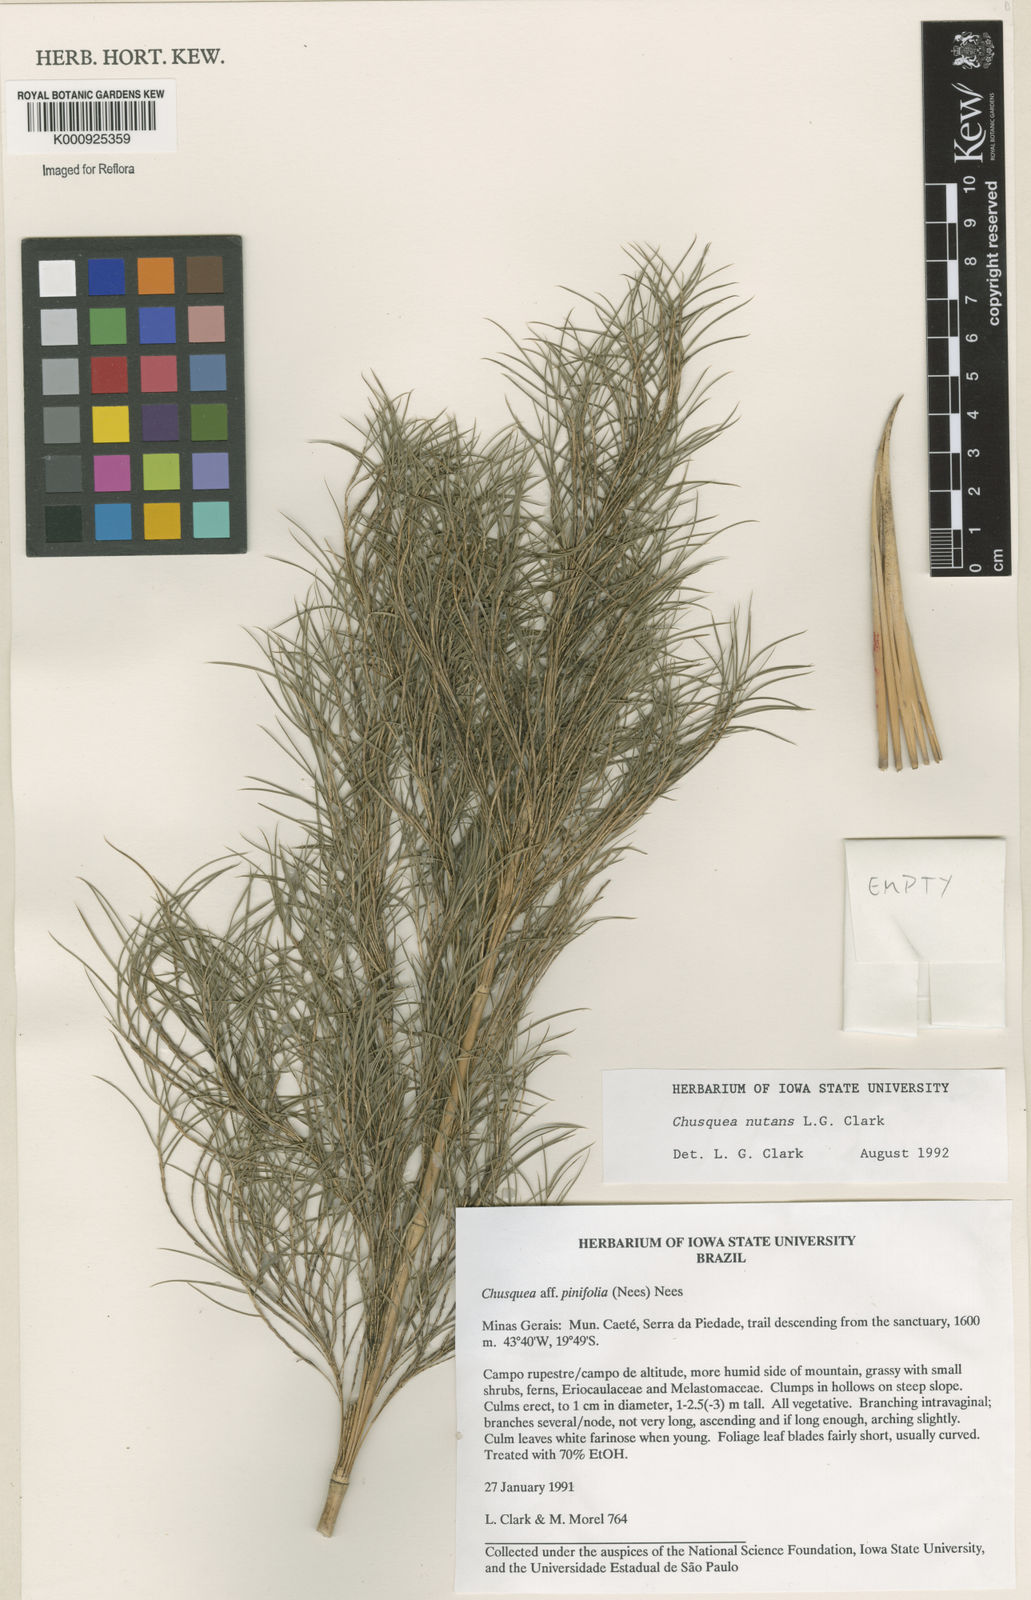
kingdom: Plantae
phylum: Tracheophyta
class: Liliopsida
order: Poales
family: Poaceae
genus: Chusquea
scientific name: Chusquea nutans
